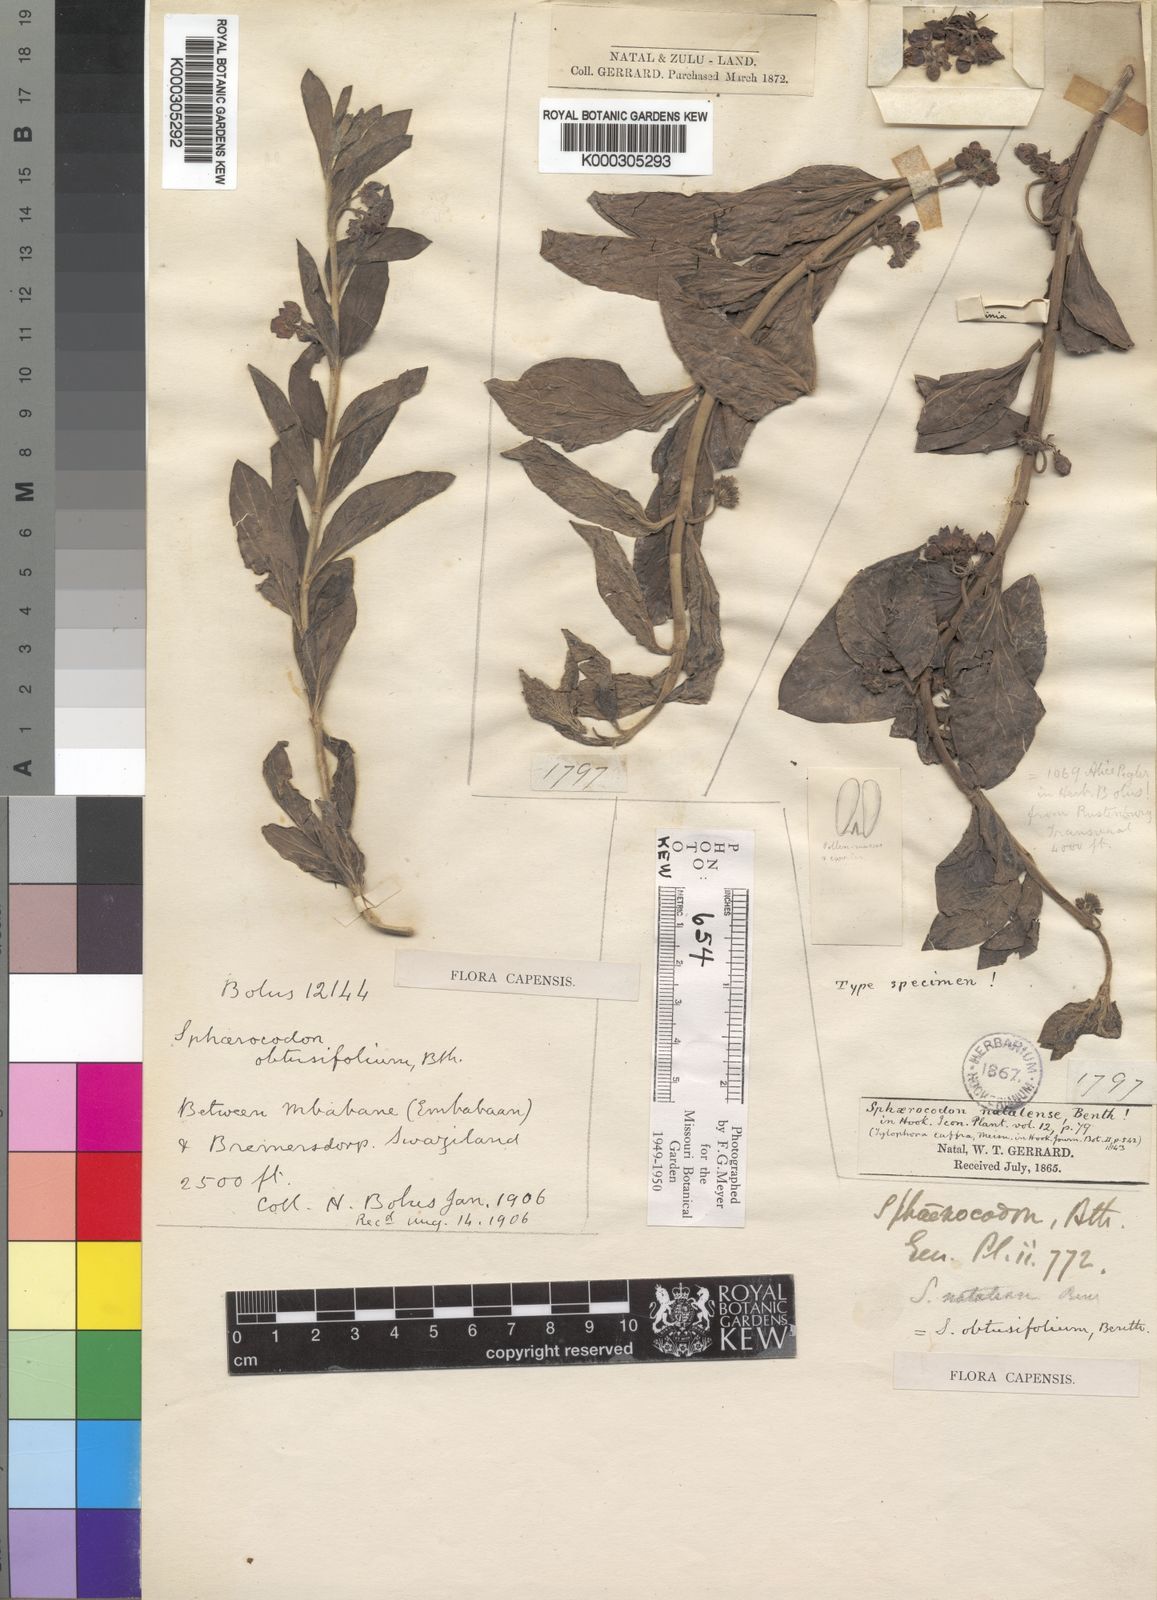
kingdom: Plantae
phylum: Tracheophyta
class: Magnoliopsida
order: Gentianales
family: Apocynaceae
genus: Vincetoxicum
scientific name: Vincetoxicum caffrum
